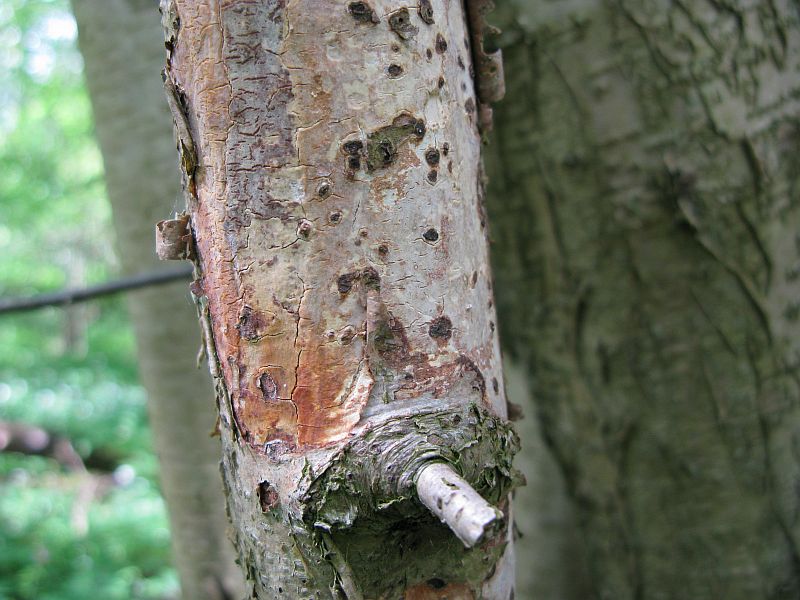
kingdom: Fungi
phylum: Basidiomycota
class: Agaricomycetes
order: Corticiales
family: Vuilleminiaceae
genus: Vuilleminia
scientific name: Vuilleminia coryli
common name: hassel-barksprænger
